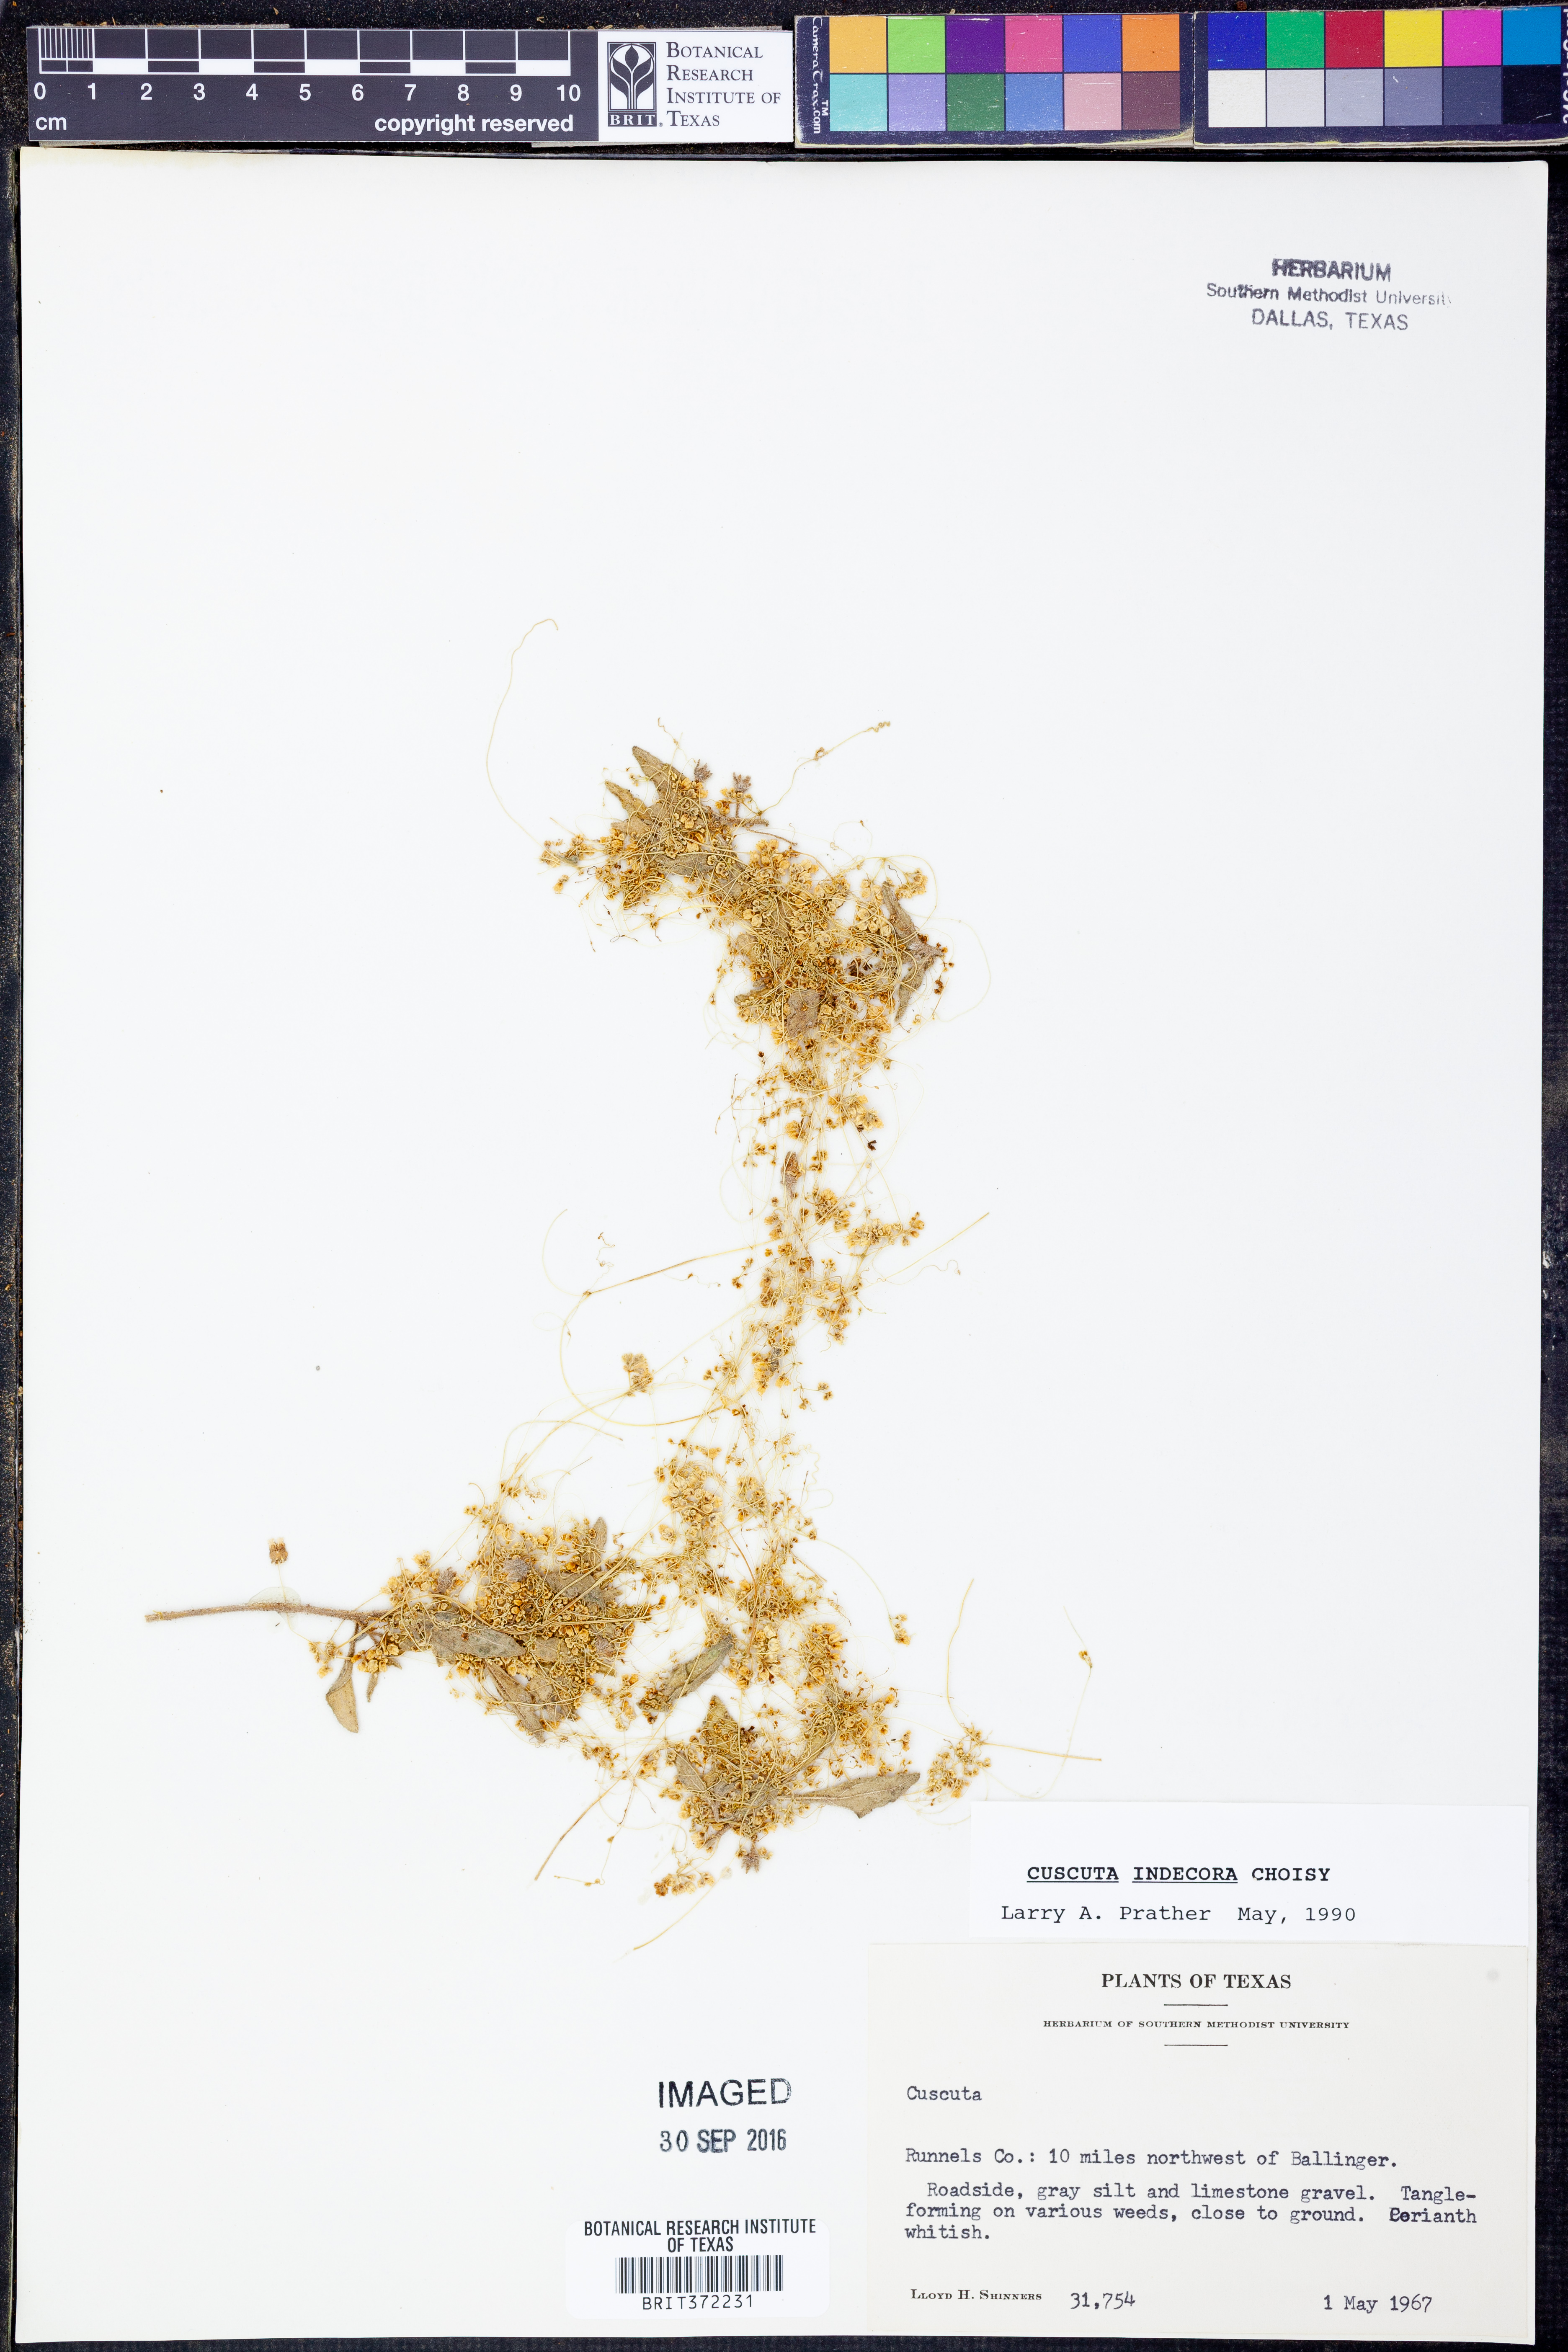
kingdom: Plantae
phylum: Tracheophyta
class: Magnoliopsida
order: Solanales
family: Convolvulaceae
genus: Cuscuta
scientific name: Cuscuta indecora
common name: Large-seed dodder
